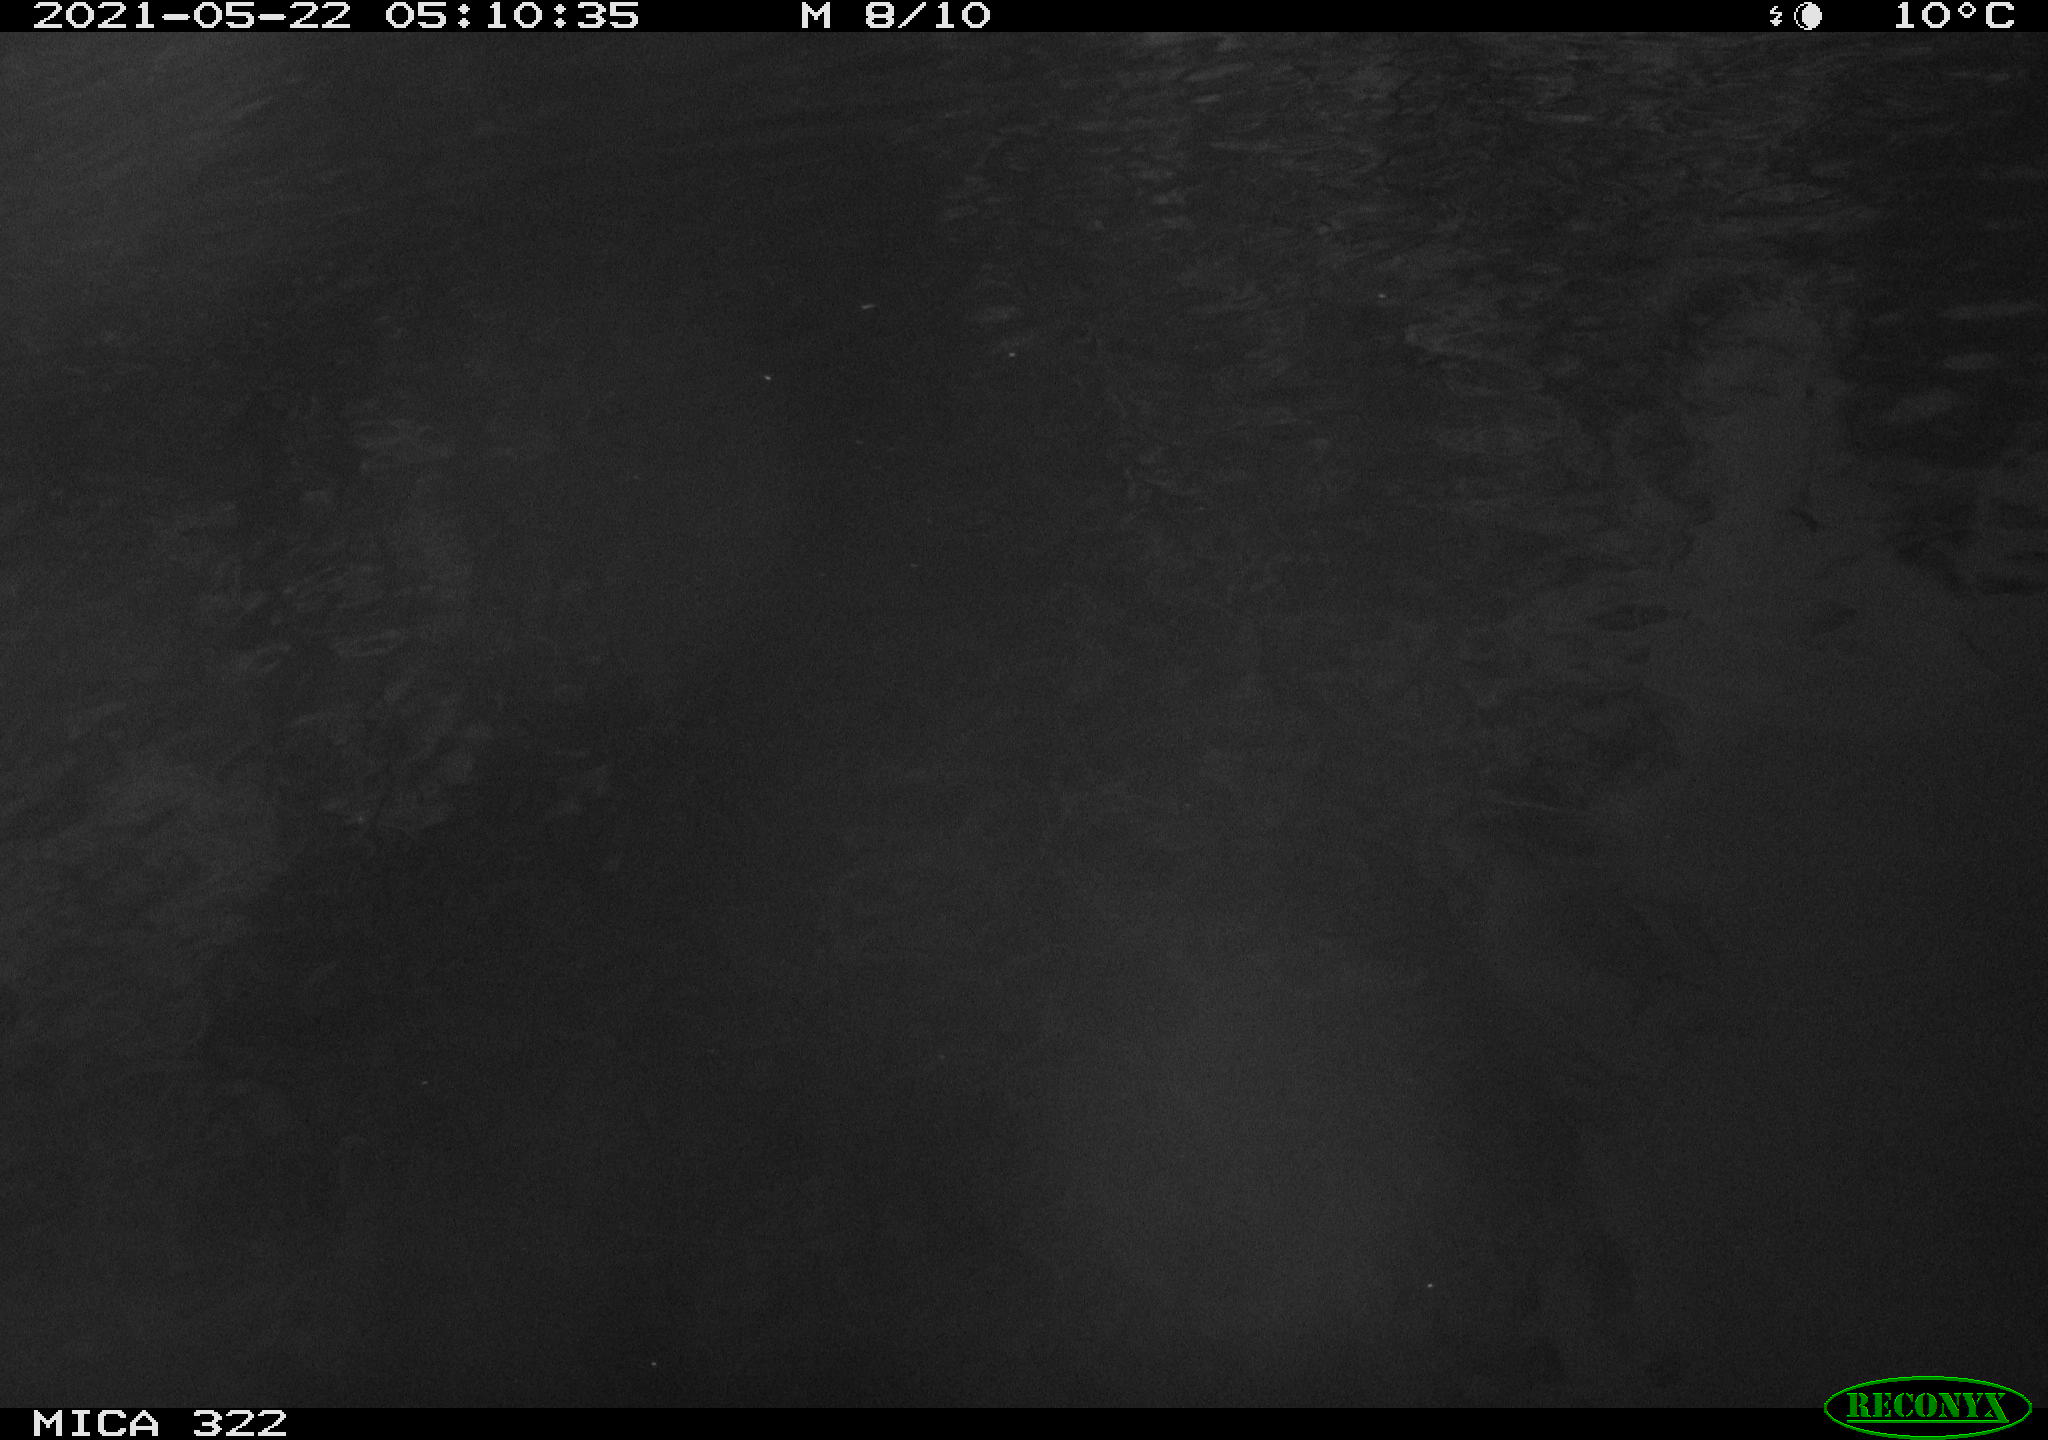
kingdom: Animalia
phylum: Chordata
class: Aves
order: Gruiformes
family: Rallidae
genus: Fulica
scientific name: Fulica atra
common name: Eurasian coot
